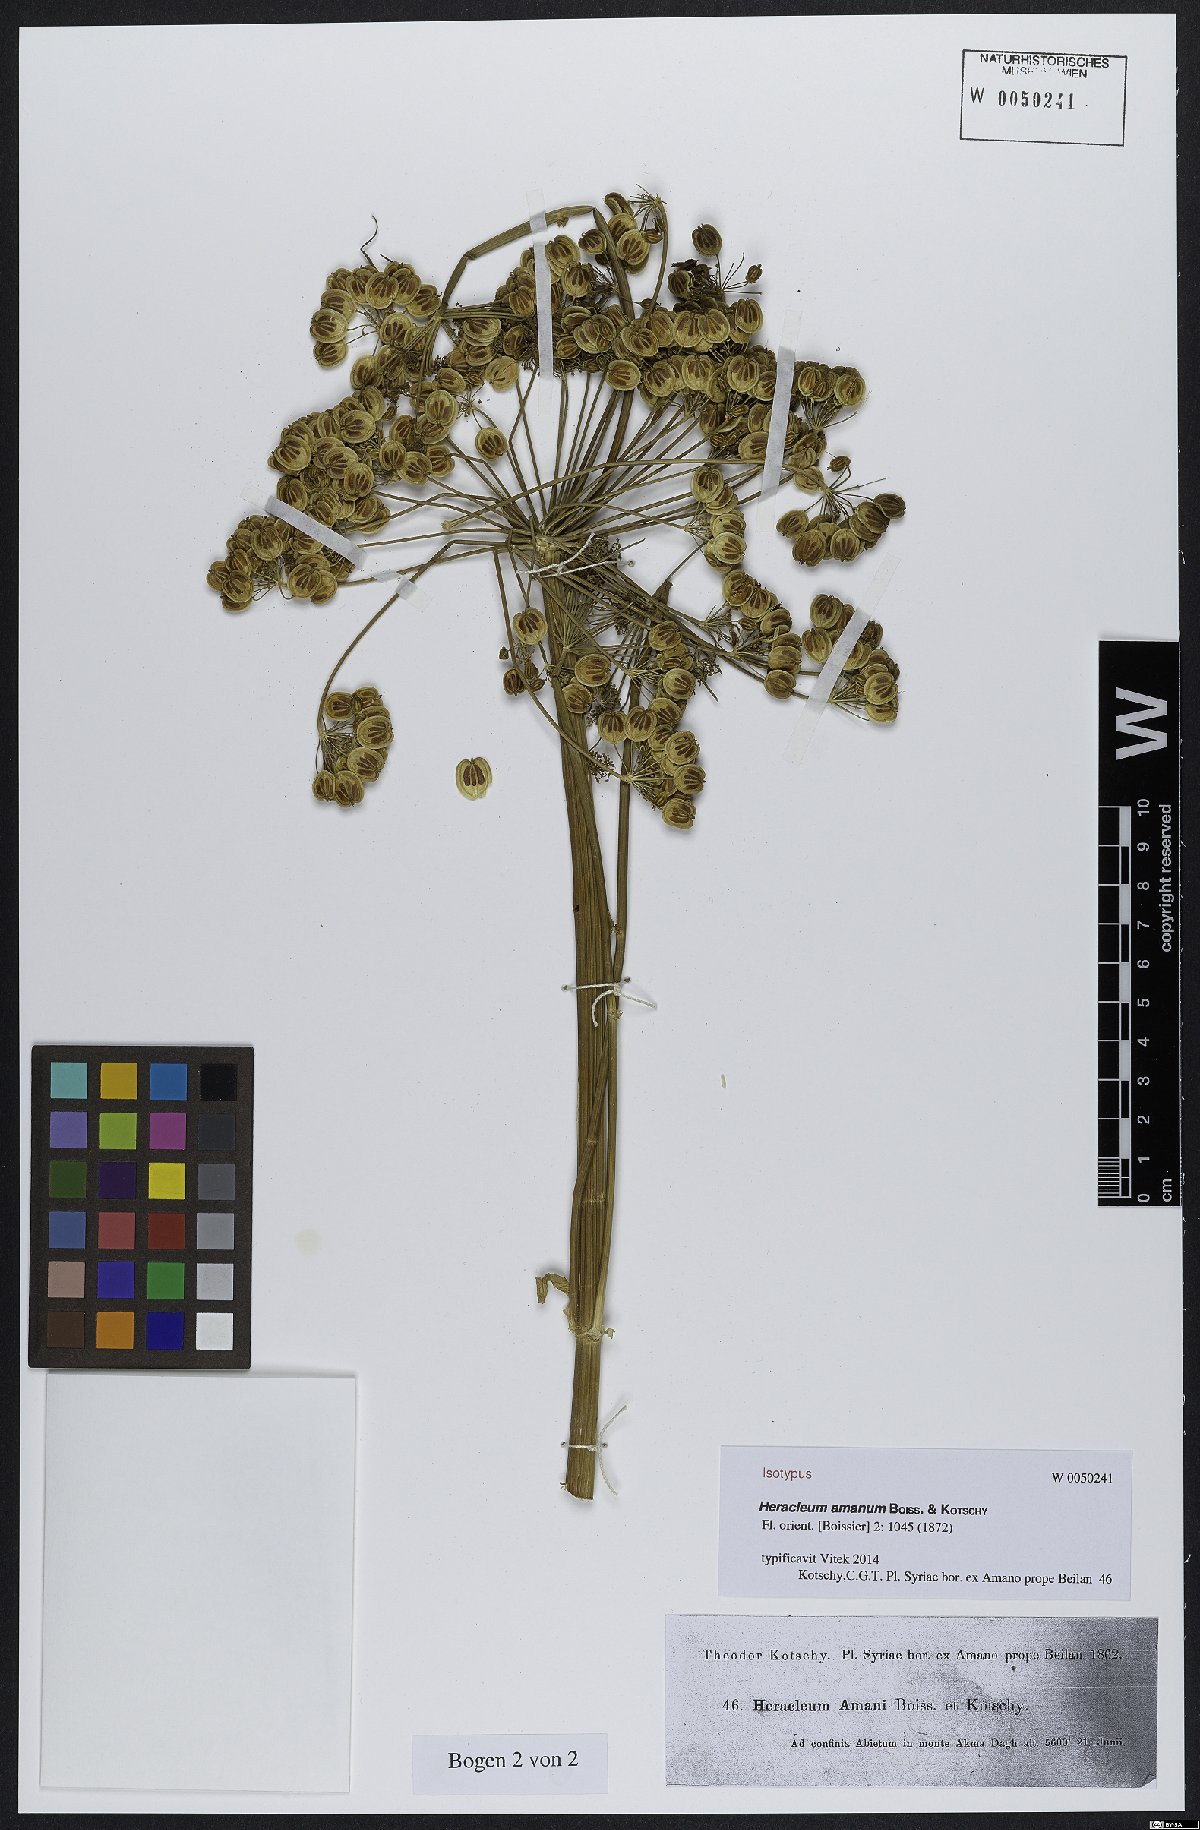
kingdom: Plantae
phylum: Tracheophyta
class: Magnoliopsida
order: Apiales
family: Apiaceae
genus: Heracleum
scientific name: Heracleum amanum
